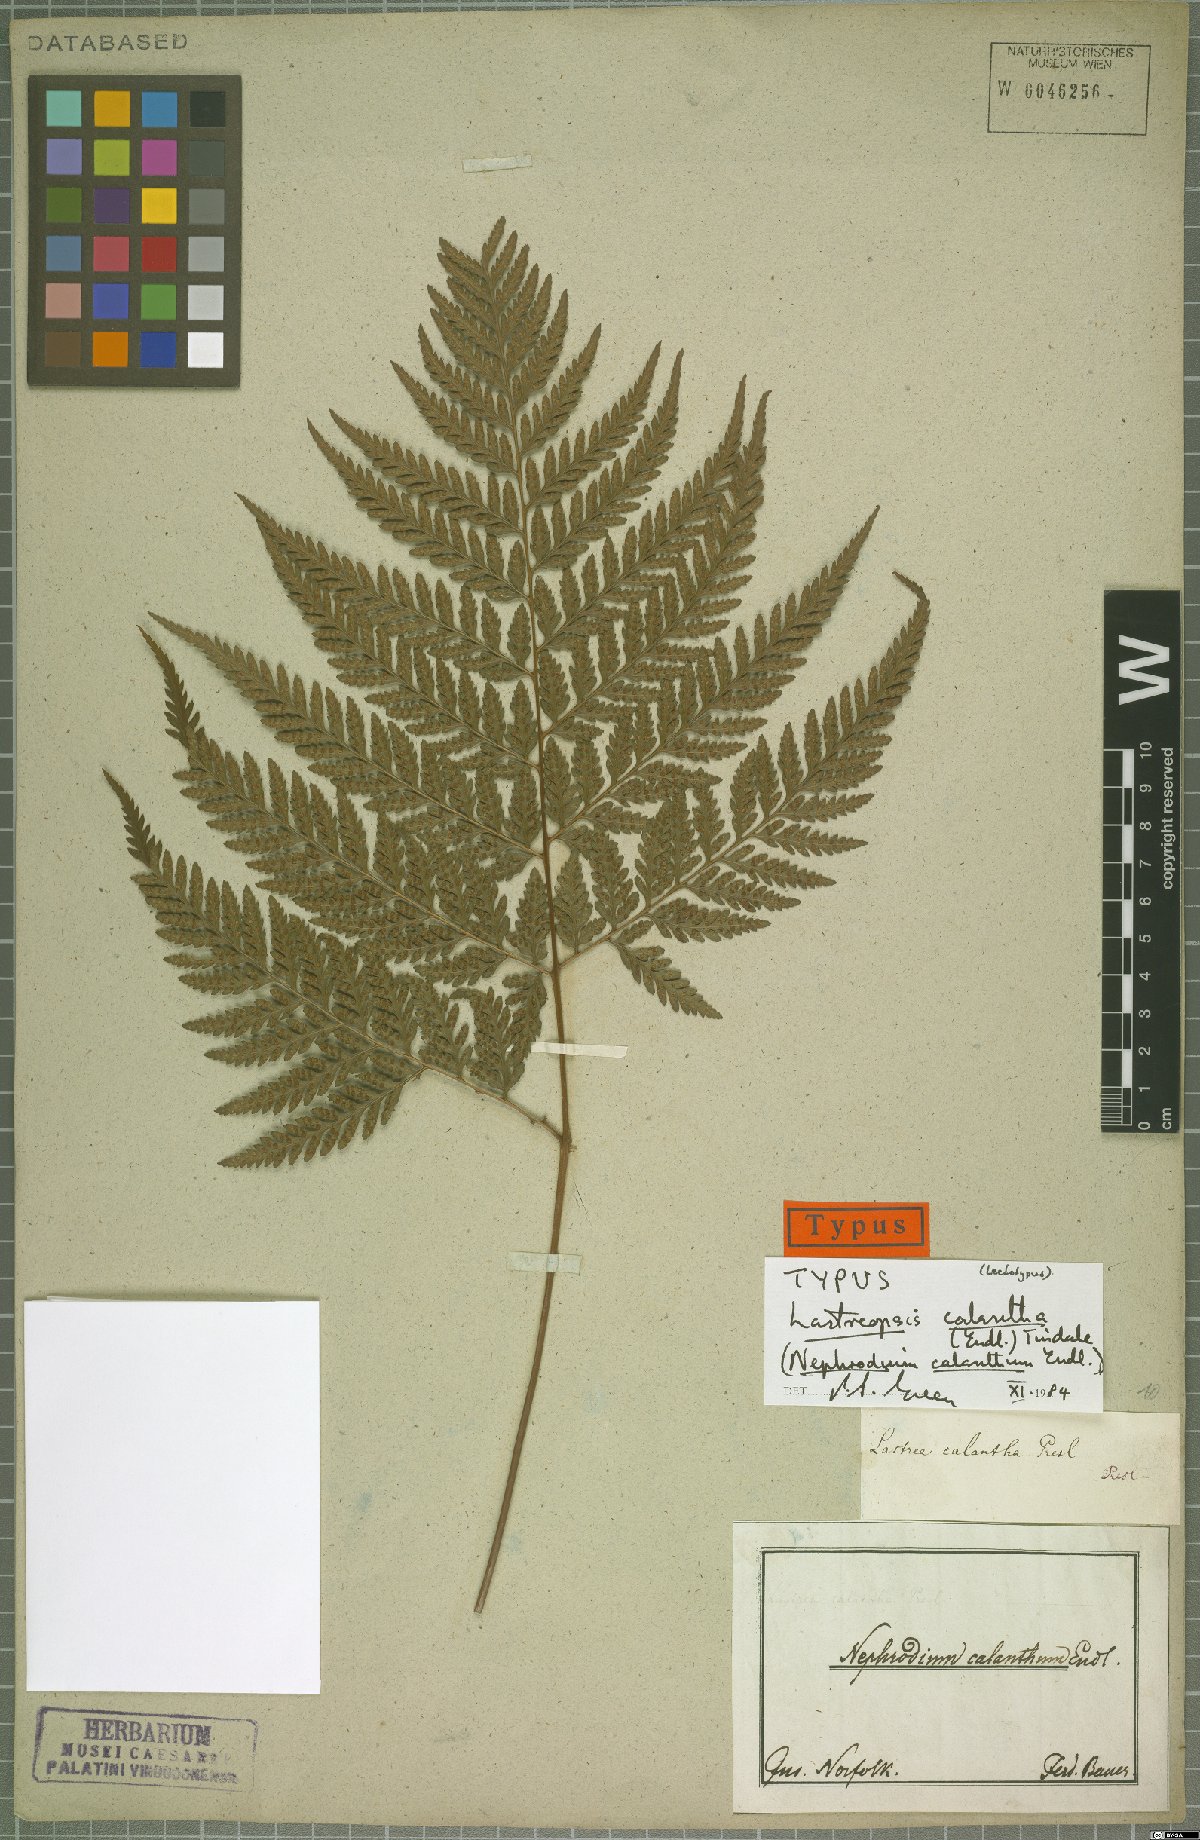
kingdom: Plantae
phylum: Tracheophyta
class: Polypodiopsida
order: Polypodiales
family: Dryopteridaceae
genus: Parapolystichum
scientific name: Parapolystichum calanthum
